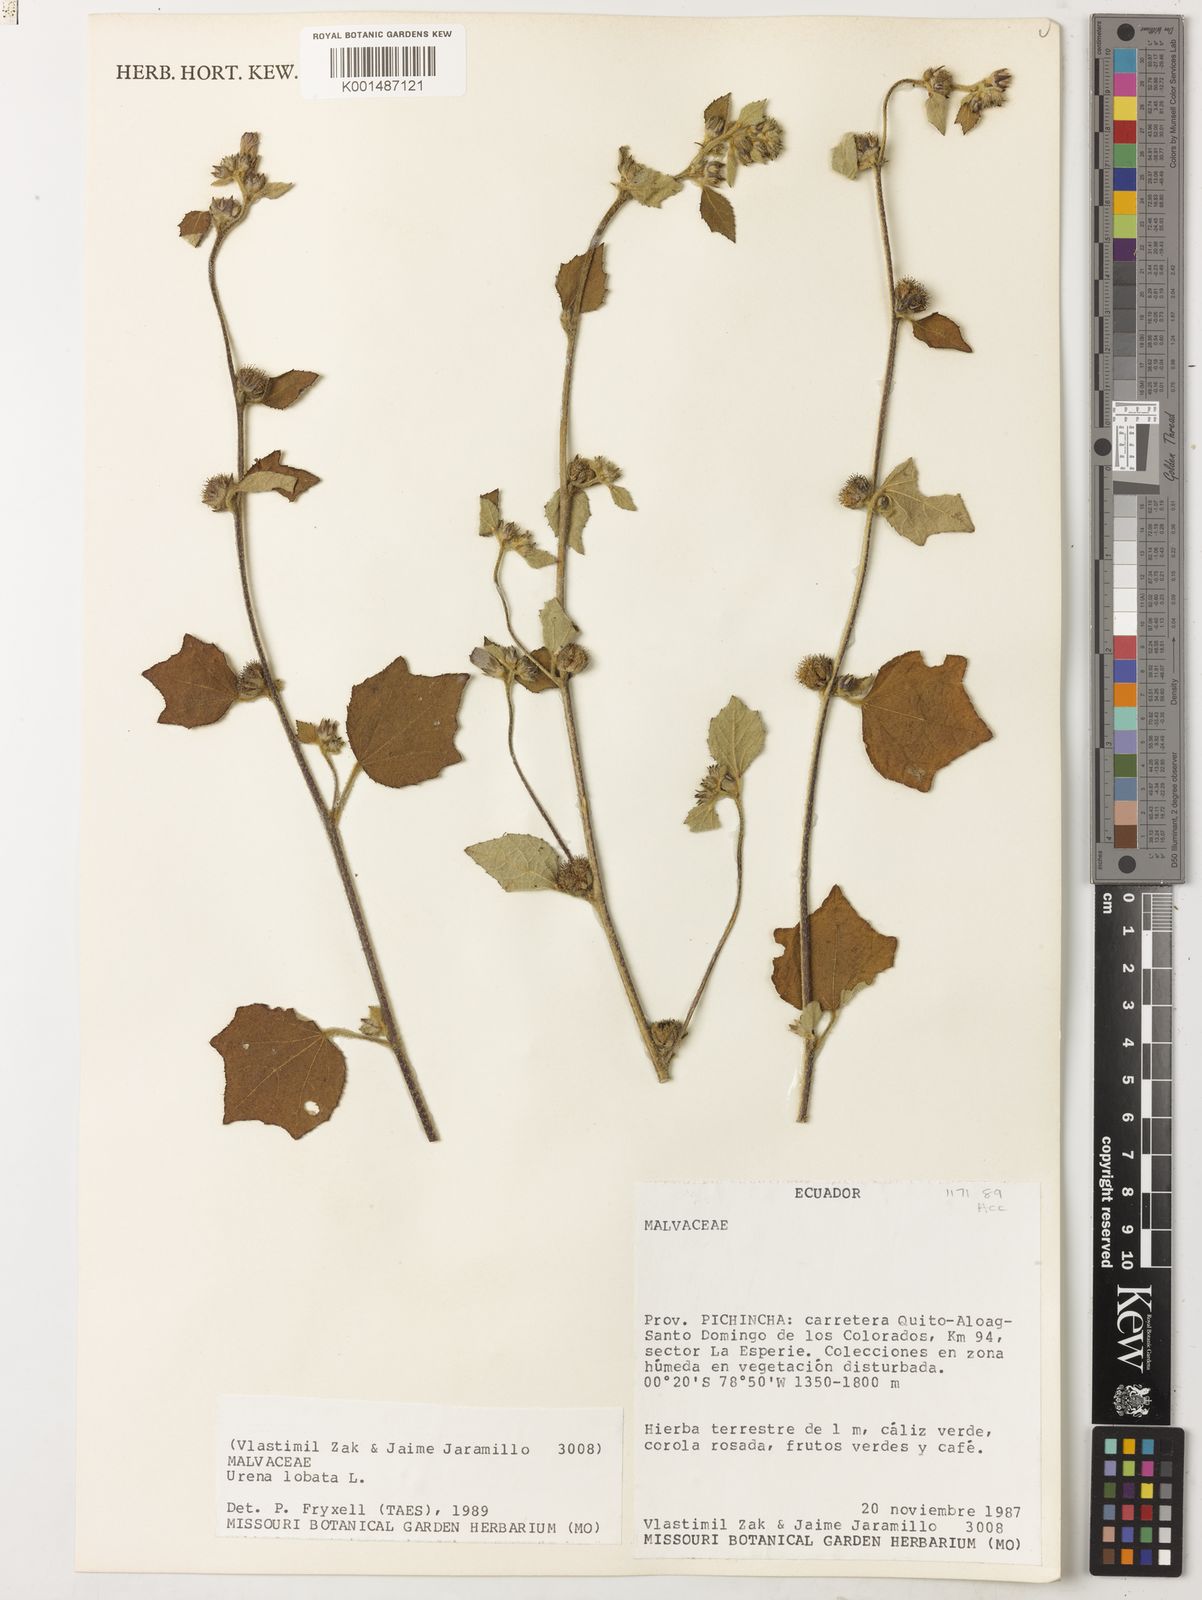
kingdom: Plantae
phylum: Tracheophyta
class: Magnoliopsida
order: Malvales
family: Malvaceae
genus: Urena
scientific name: Urena lobata
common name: Caesarweed
